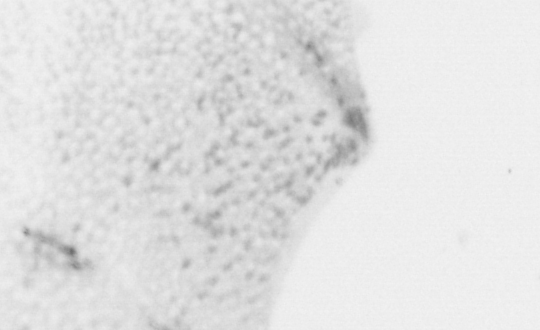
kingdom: Animalia
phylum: Chordata
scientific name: Chordata
